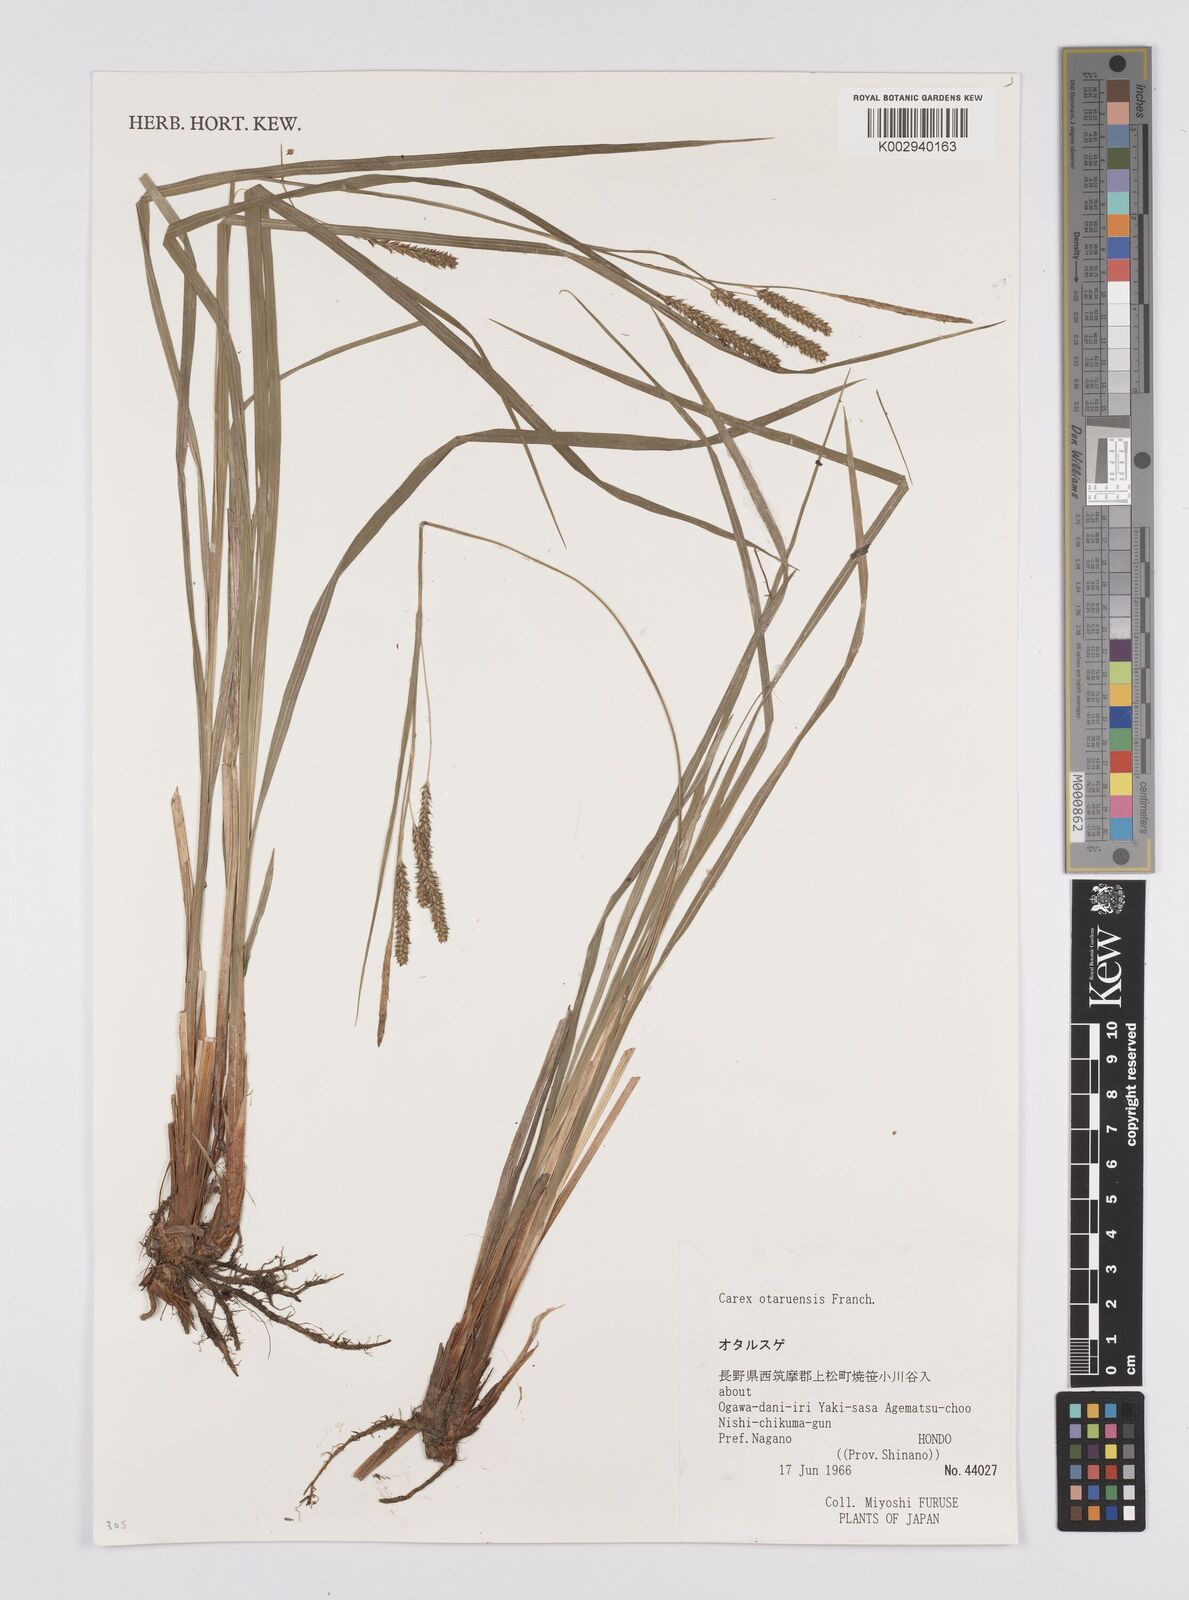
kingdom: Plantae
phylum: Tracheophyta
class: Liliopsida
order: Poales
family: Cyperaceae
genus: Carex
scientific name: Carex otaruensis
